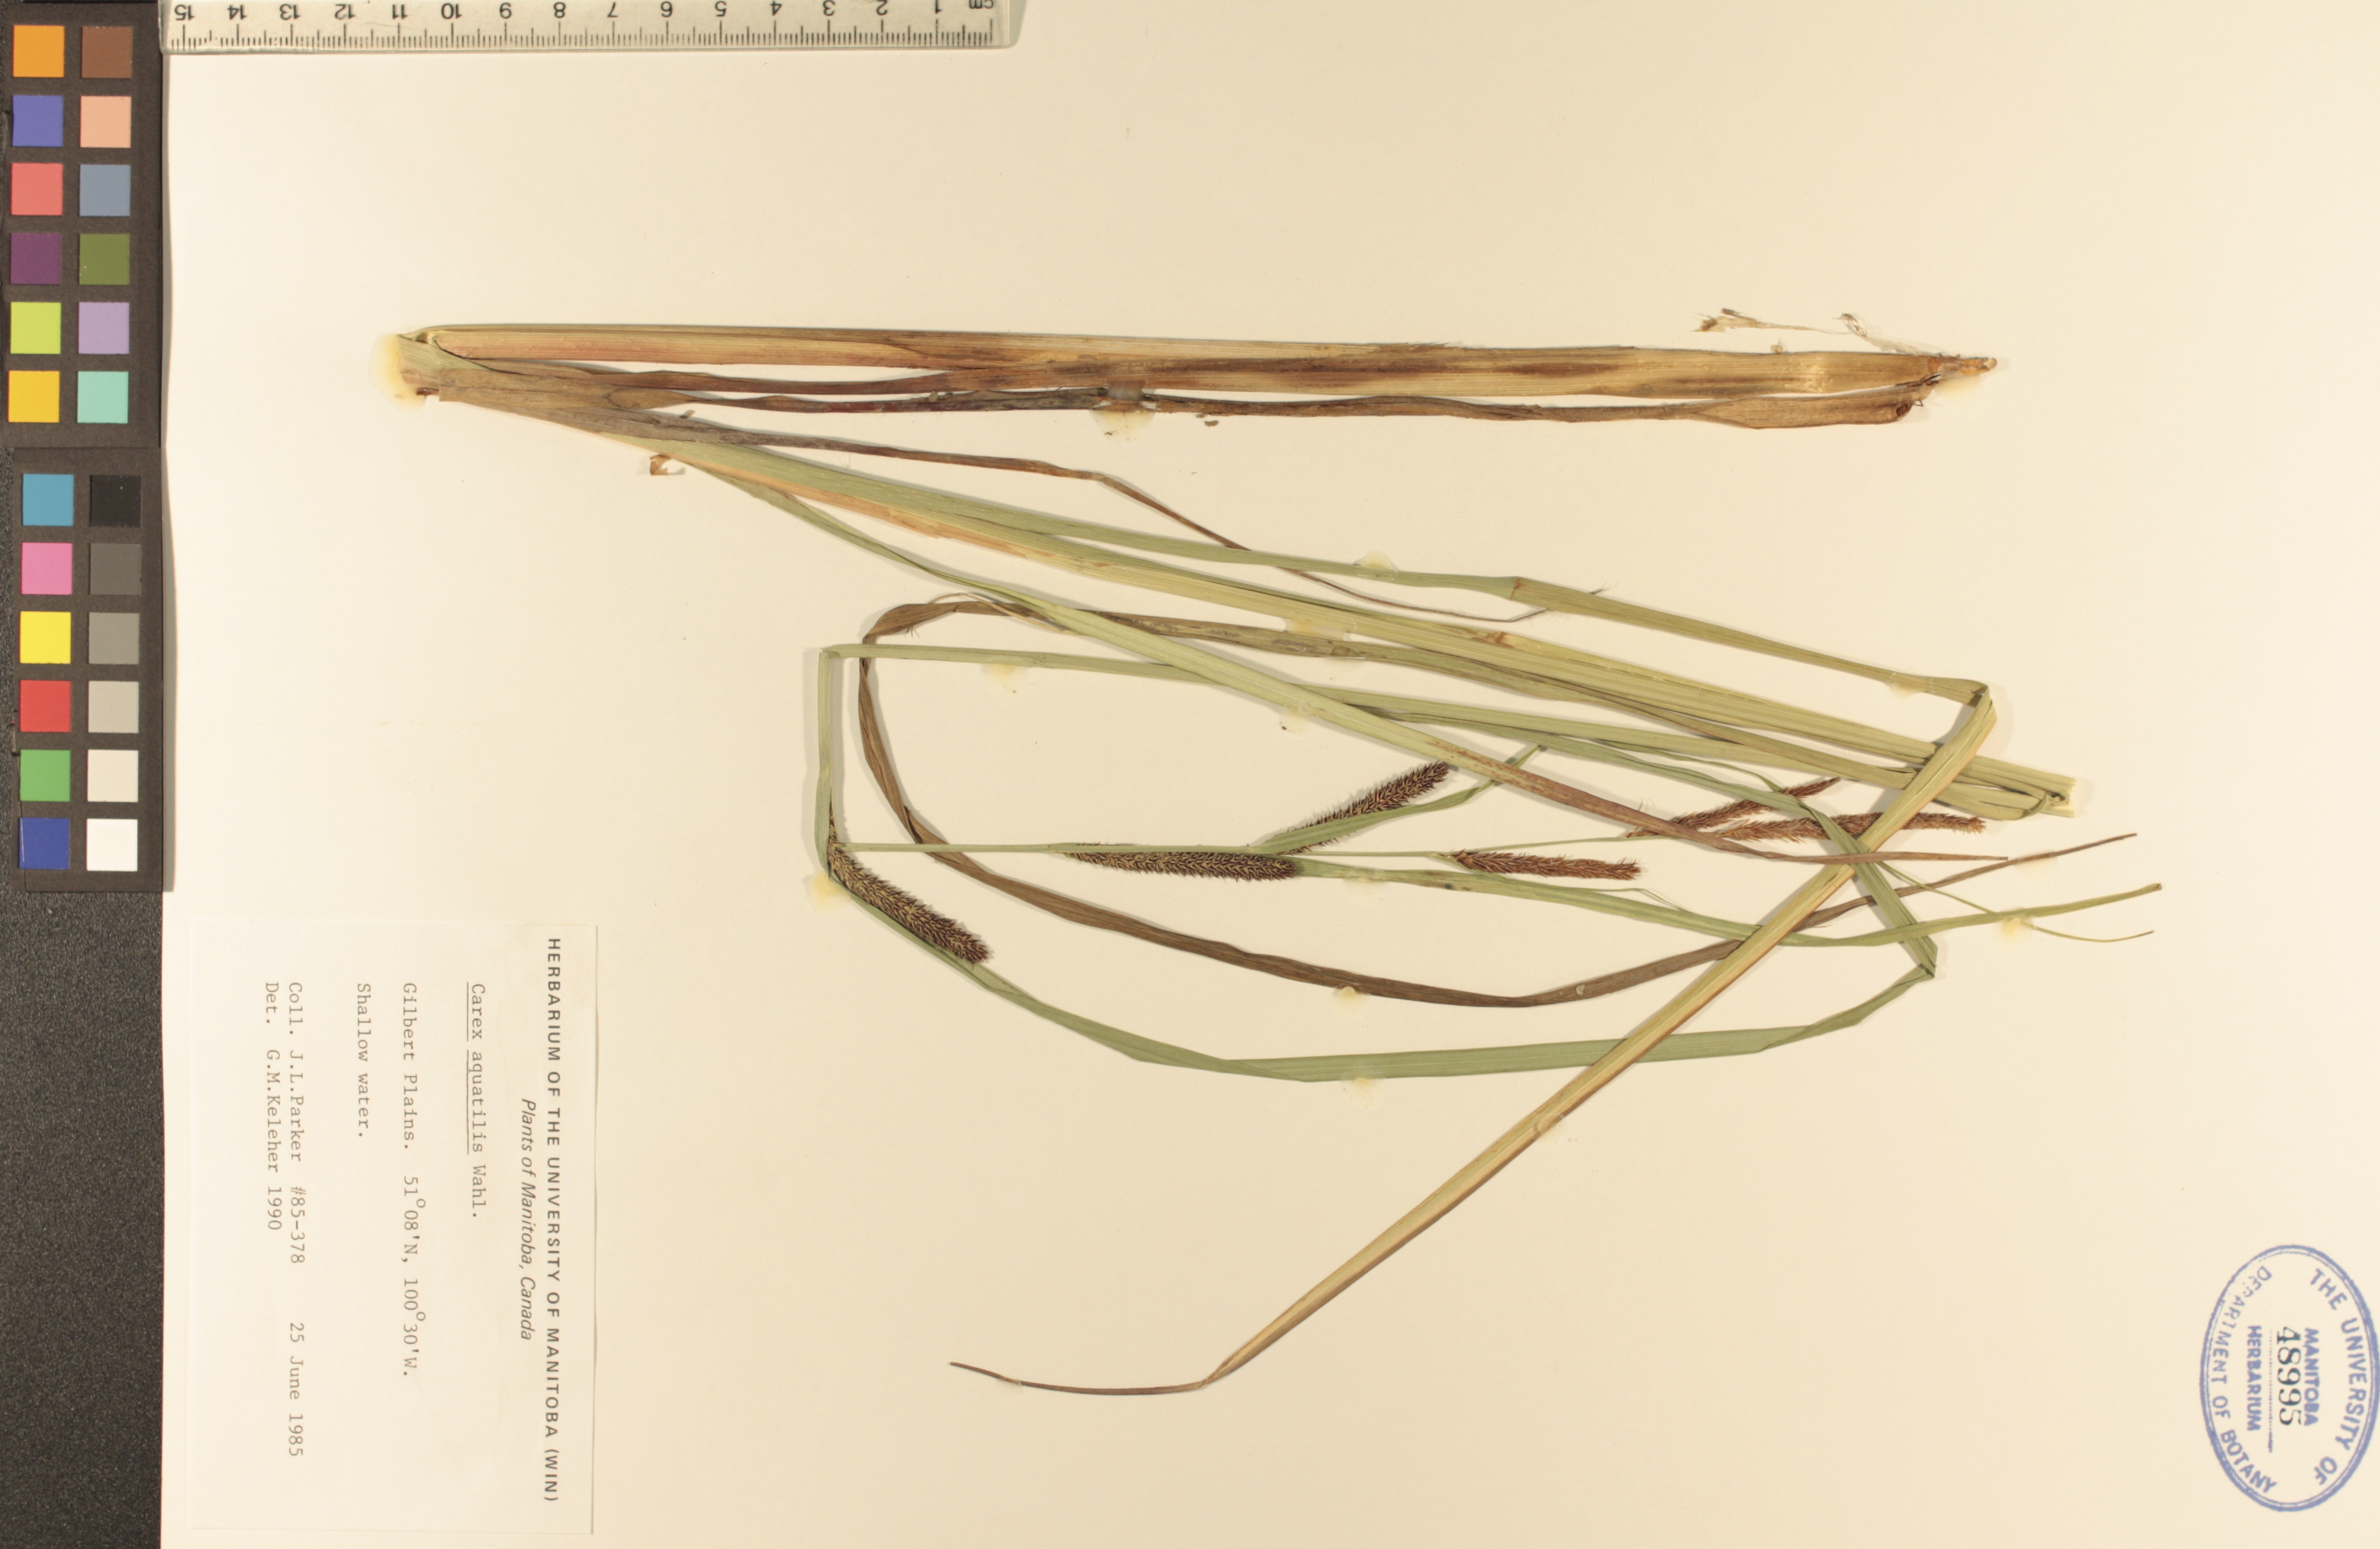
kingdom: Plantae
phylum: Tracheophyta
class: Liliopsida
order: Poales
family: Cyperaceae
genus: Carex
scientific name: Carex aquatilis
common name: Water sedge
